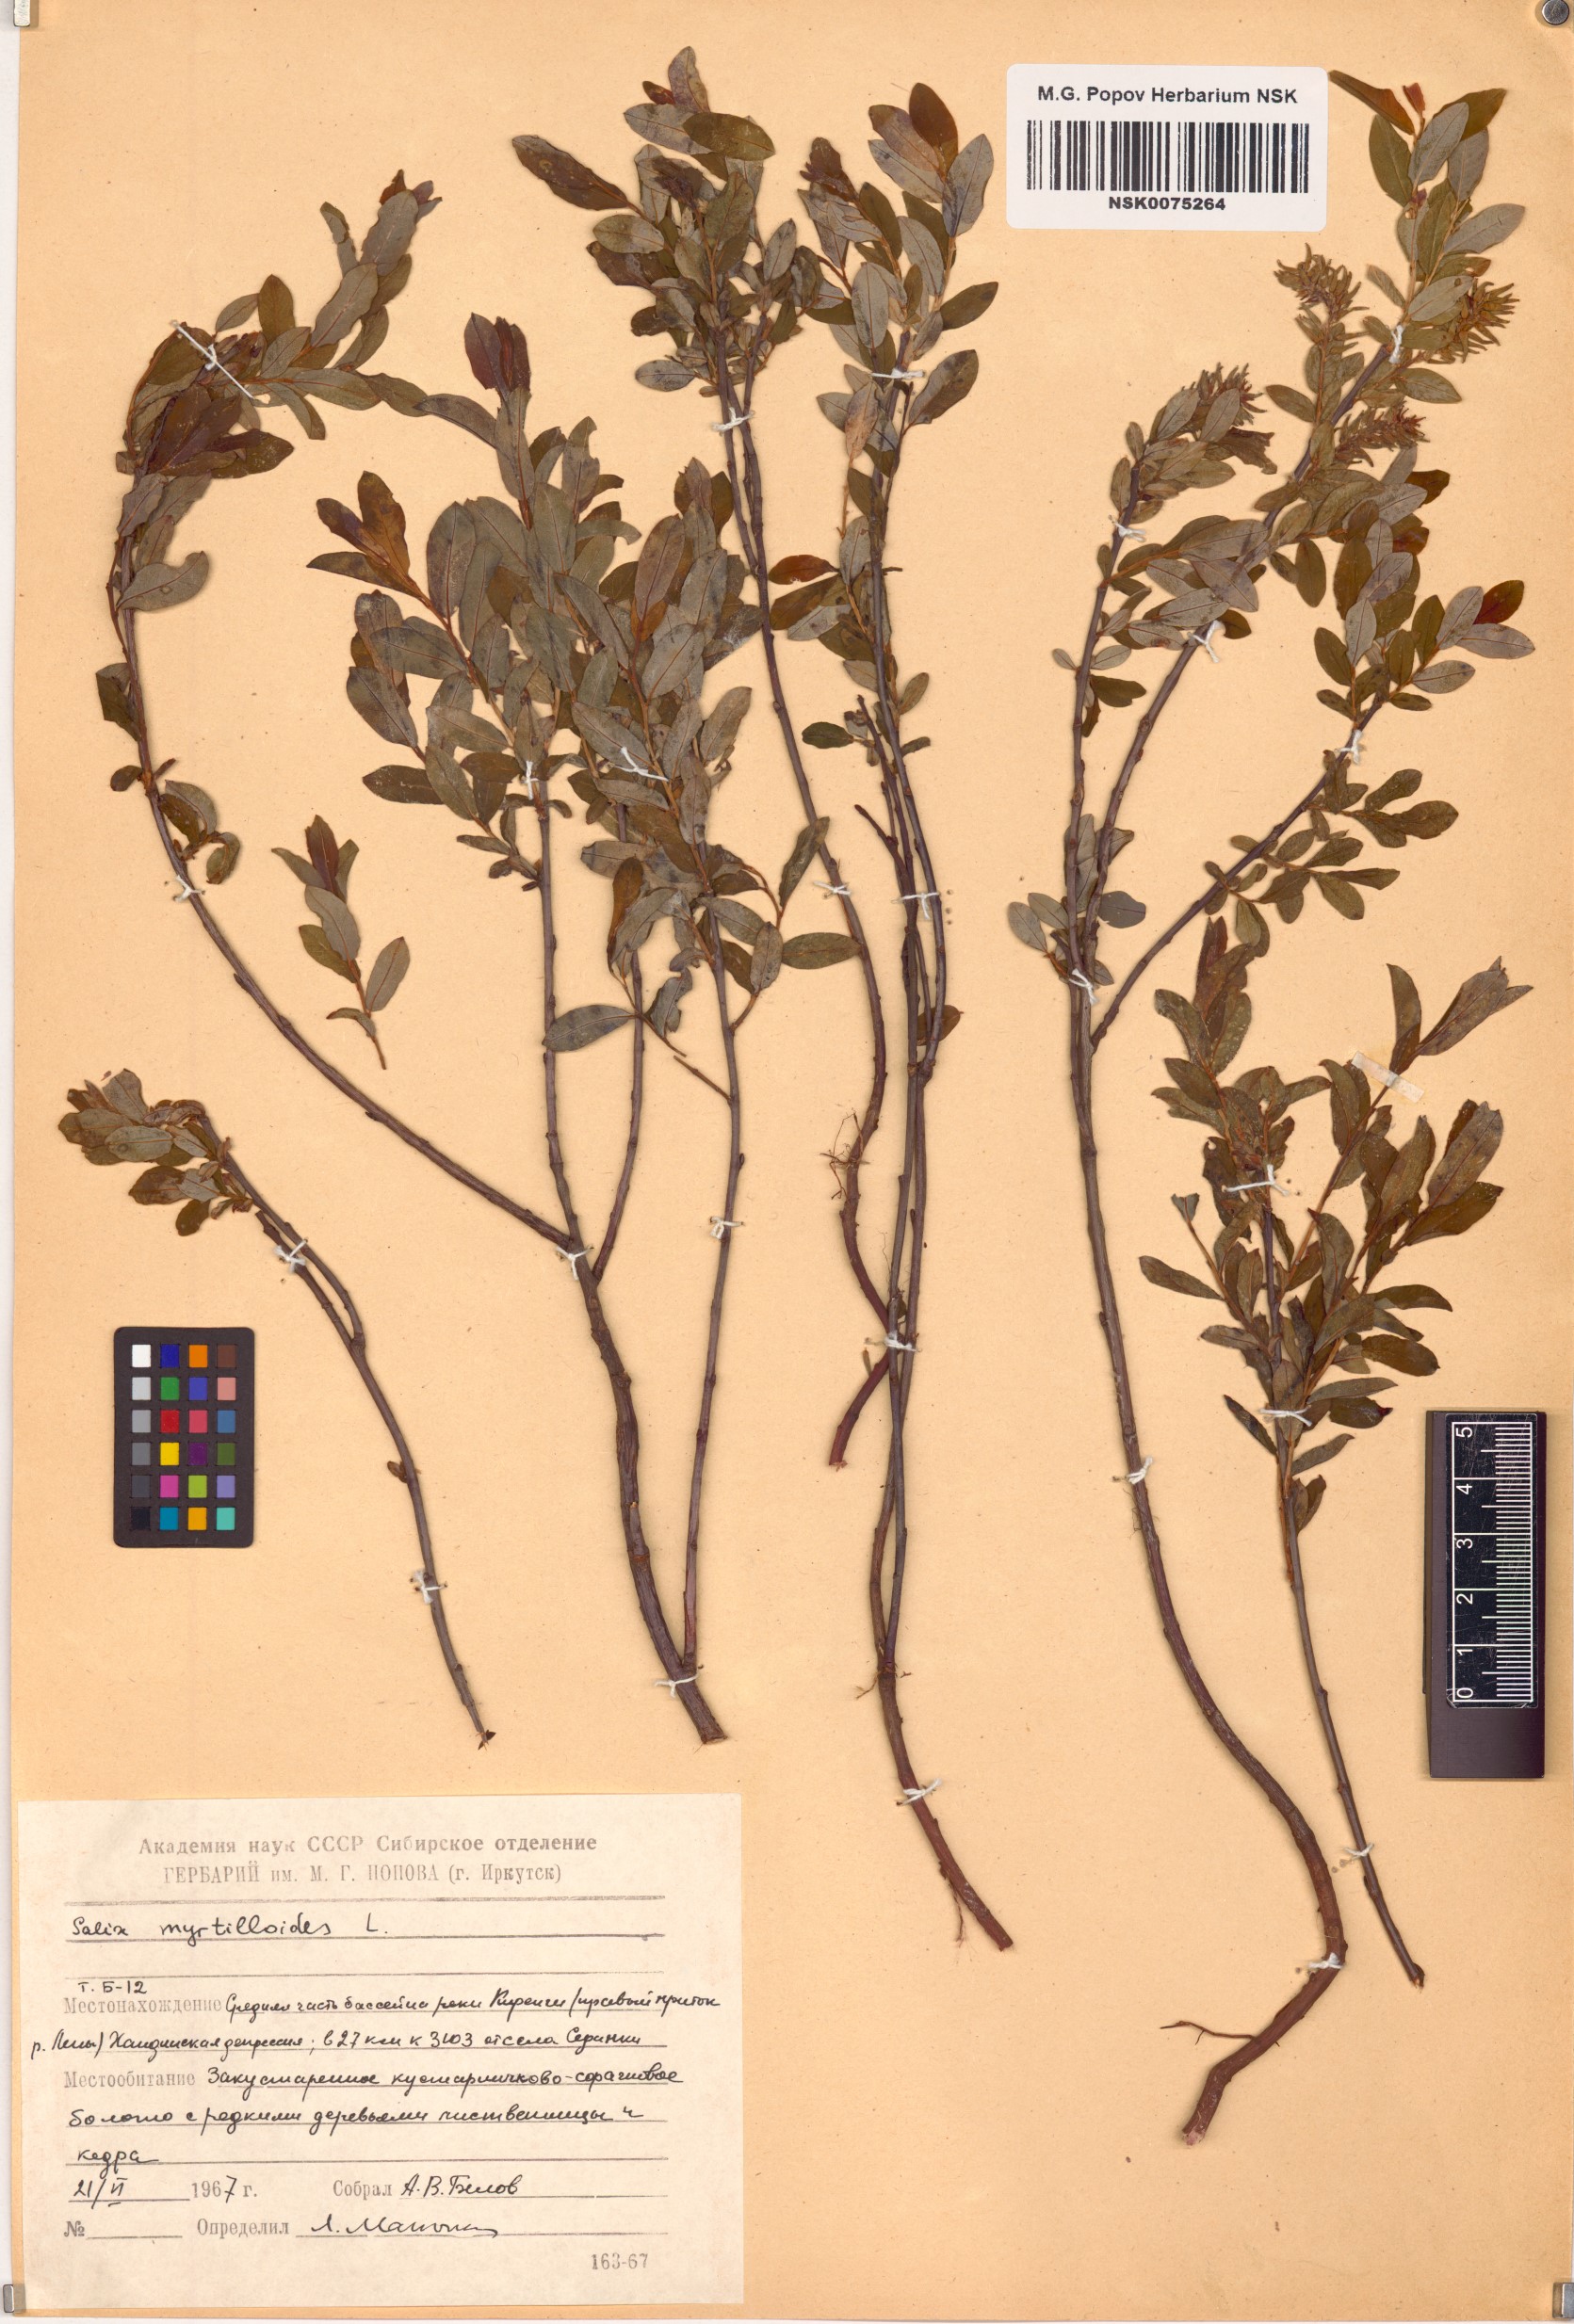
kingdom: Plantae
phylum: Tracheophyta
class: Magnoliopsida
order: Malpighiales
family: Salicaceae
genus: Salix
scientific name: Salix myrtilloides
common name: Myrtle-leaved willow
